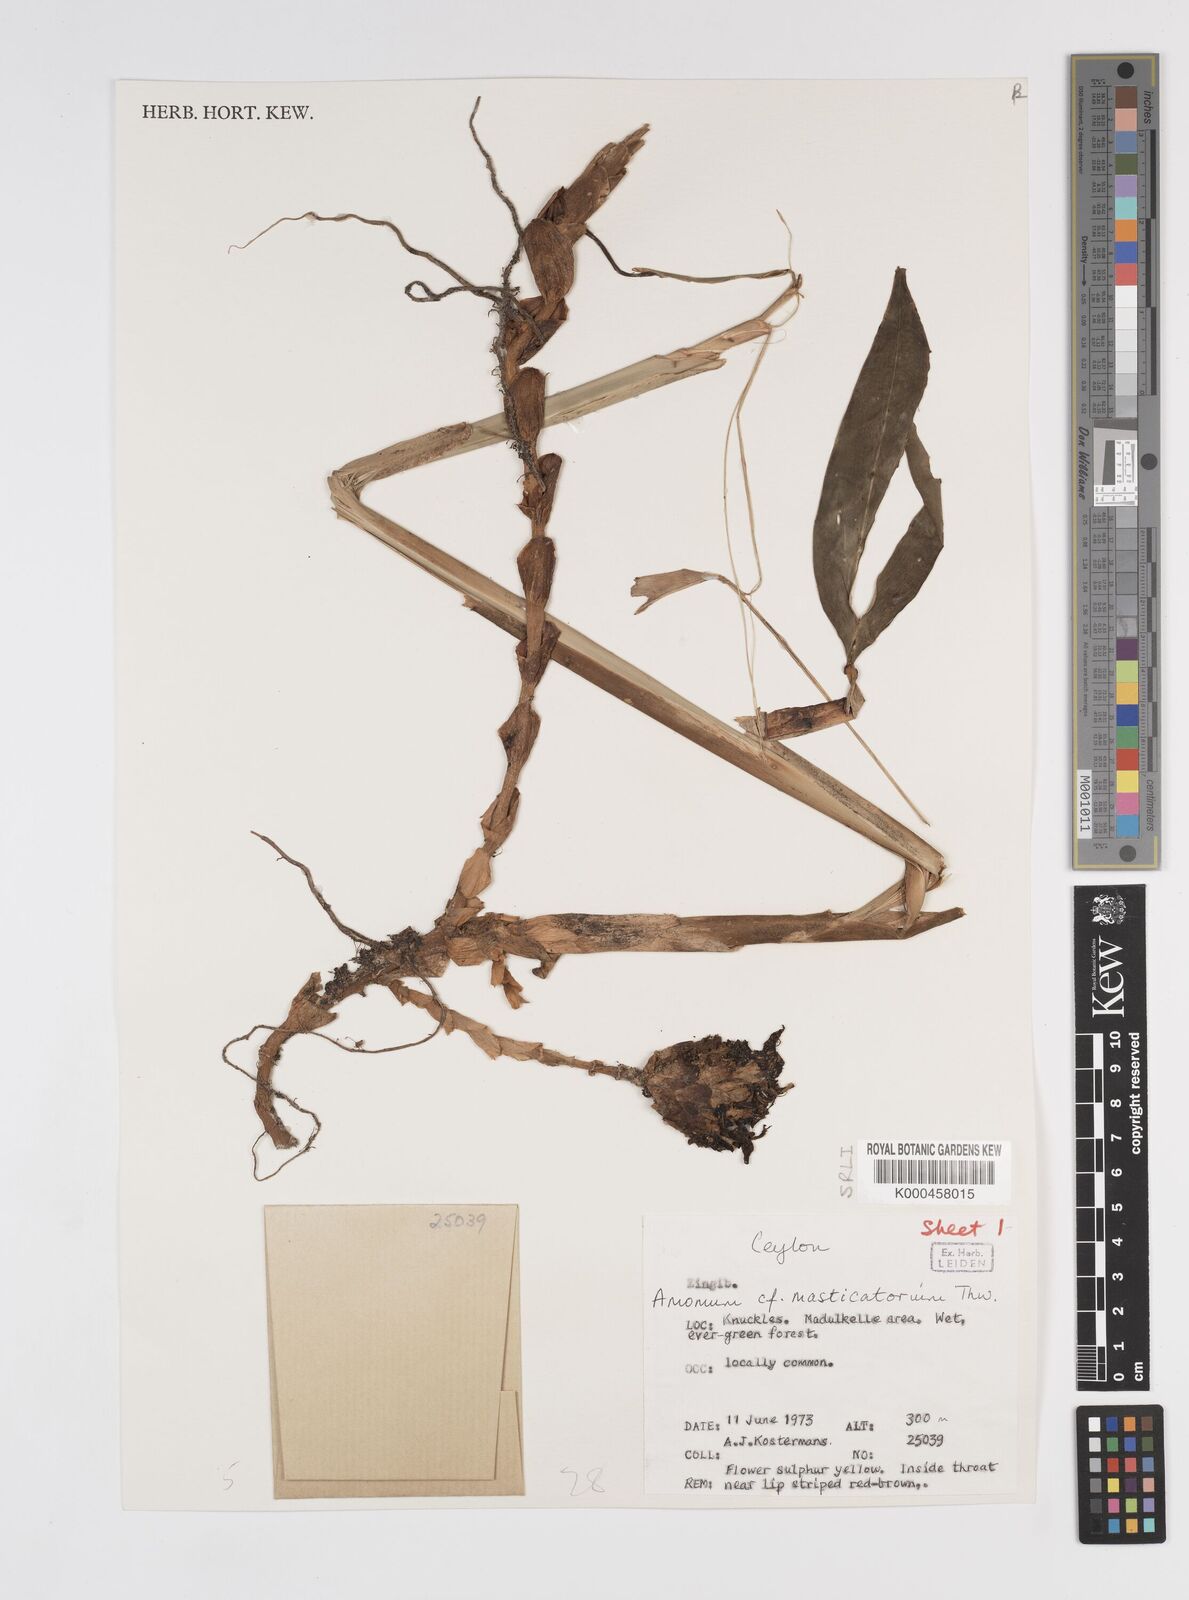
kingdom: Plantae
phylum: Tracheophyta
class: Liliopsida
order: Zingiberales
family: Zingiberaceae
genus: Meistera
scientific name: Meistera masticatorium
